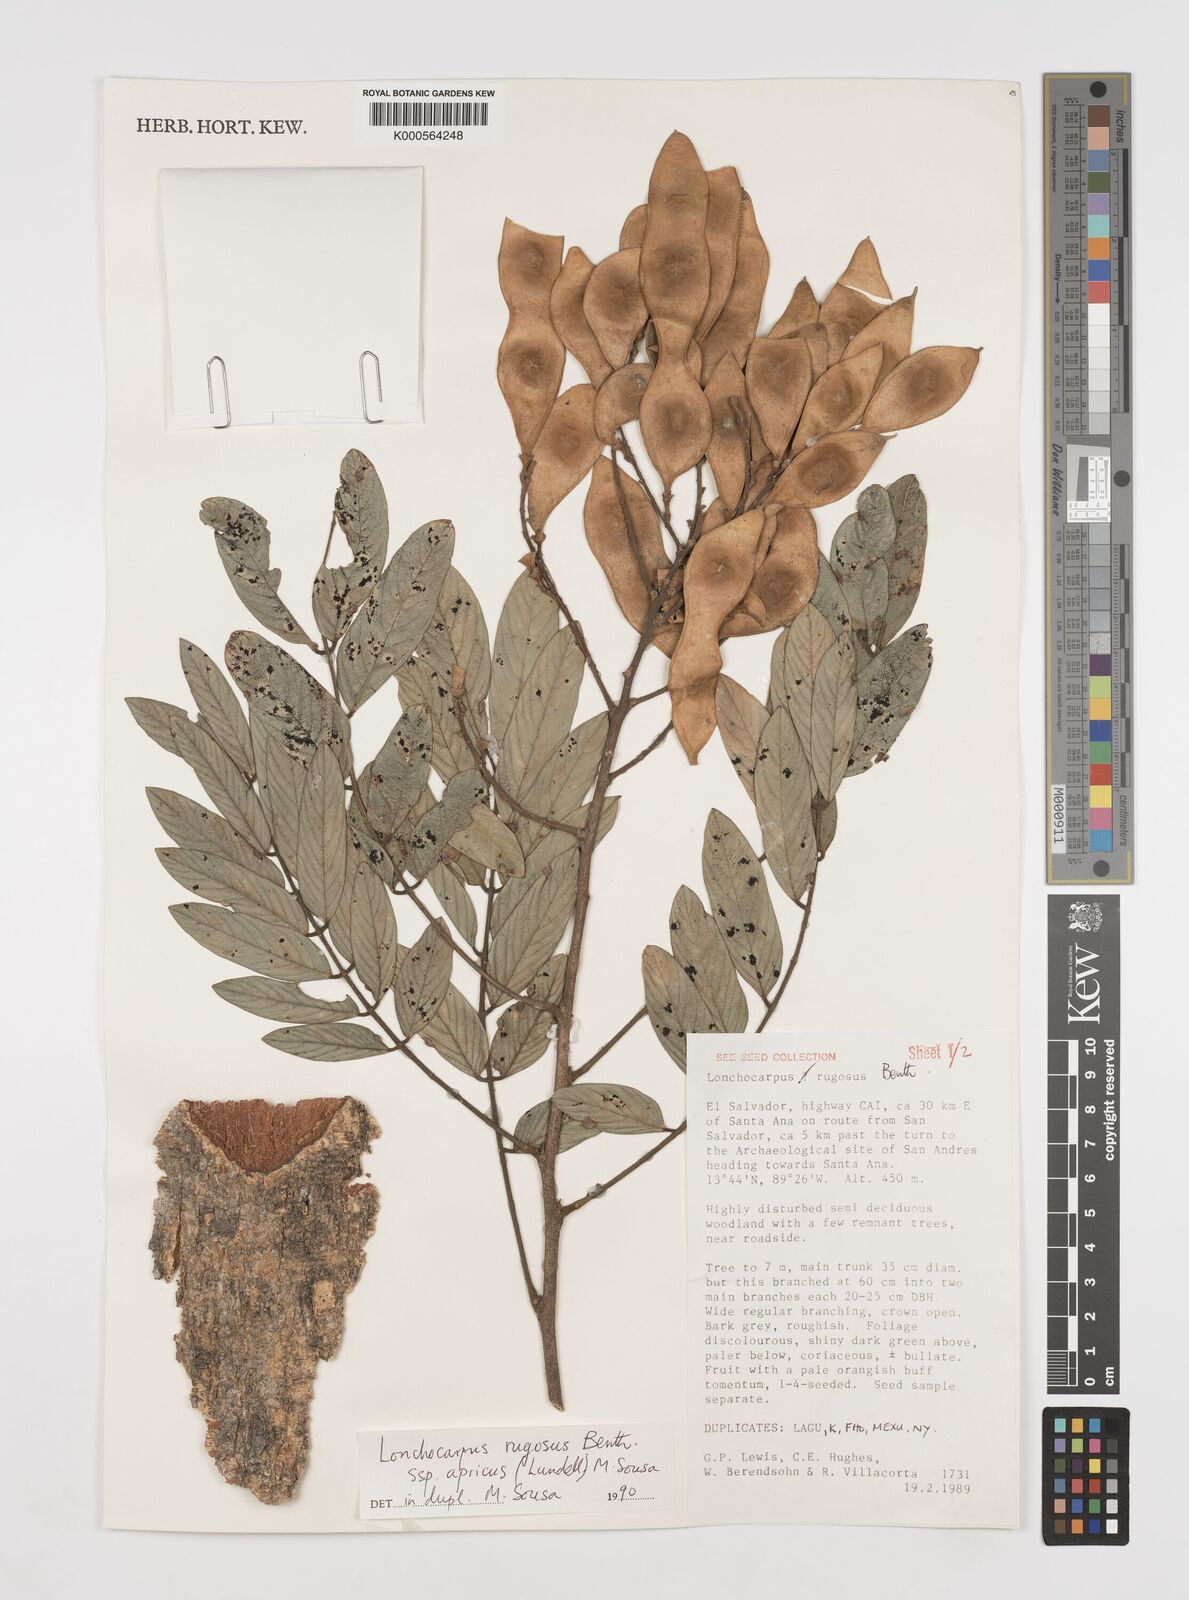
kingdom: Plantae
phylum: Tracheophyta
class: Magnoliopsida
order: Fabales
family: Fabaceae
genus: Lonchocarpus
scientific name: Lonchocarpus rugosus
